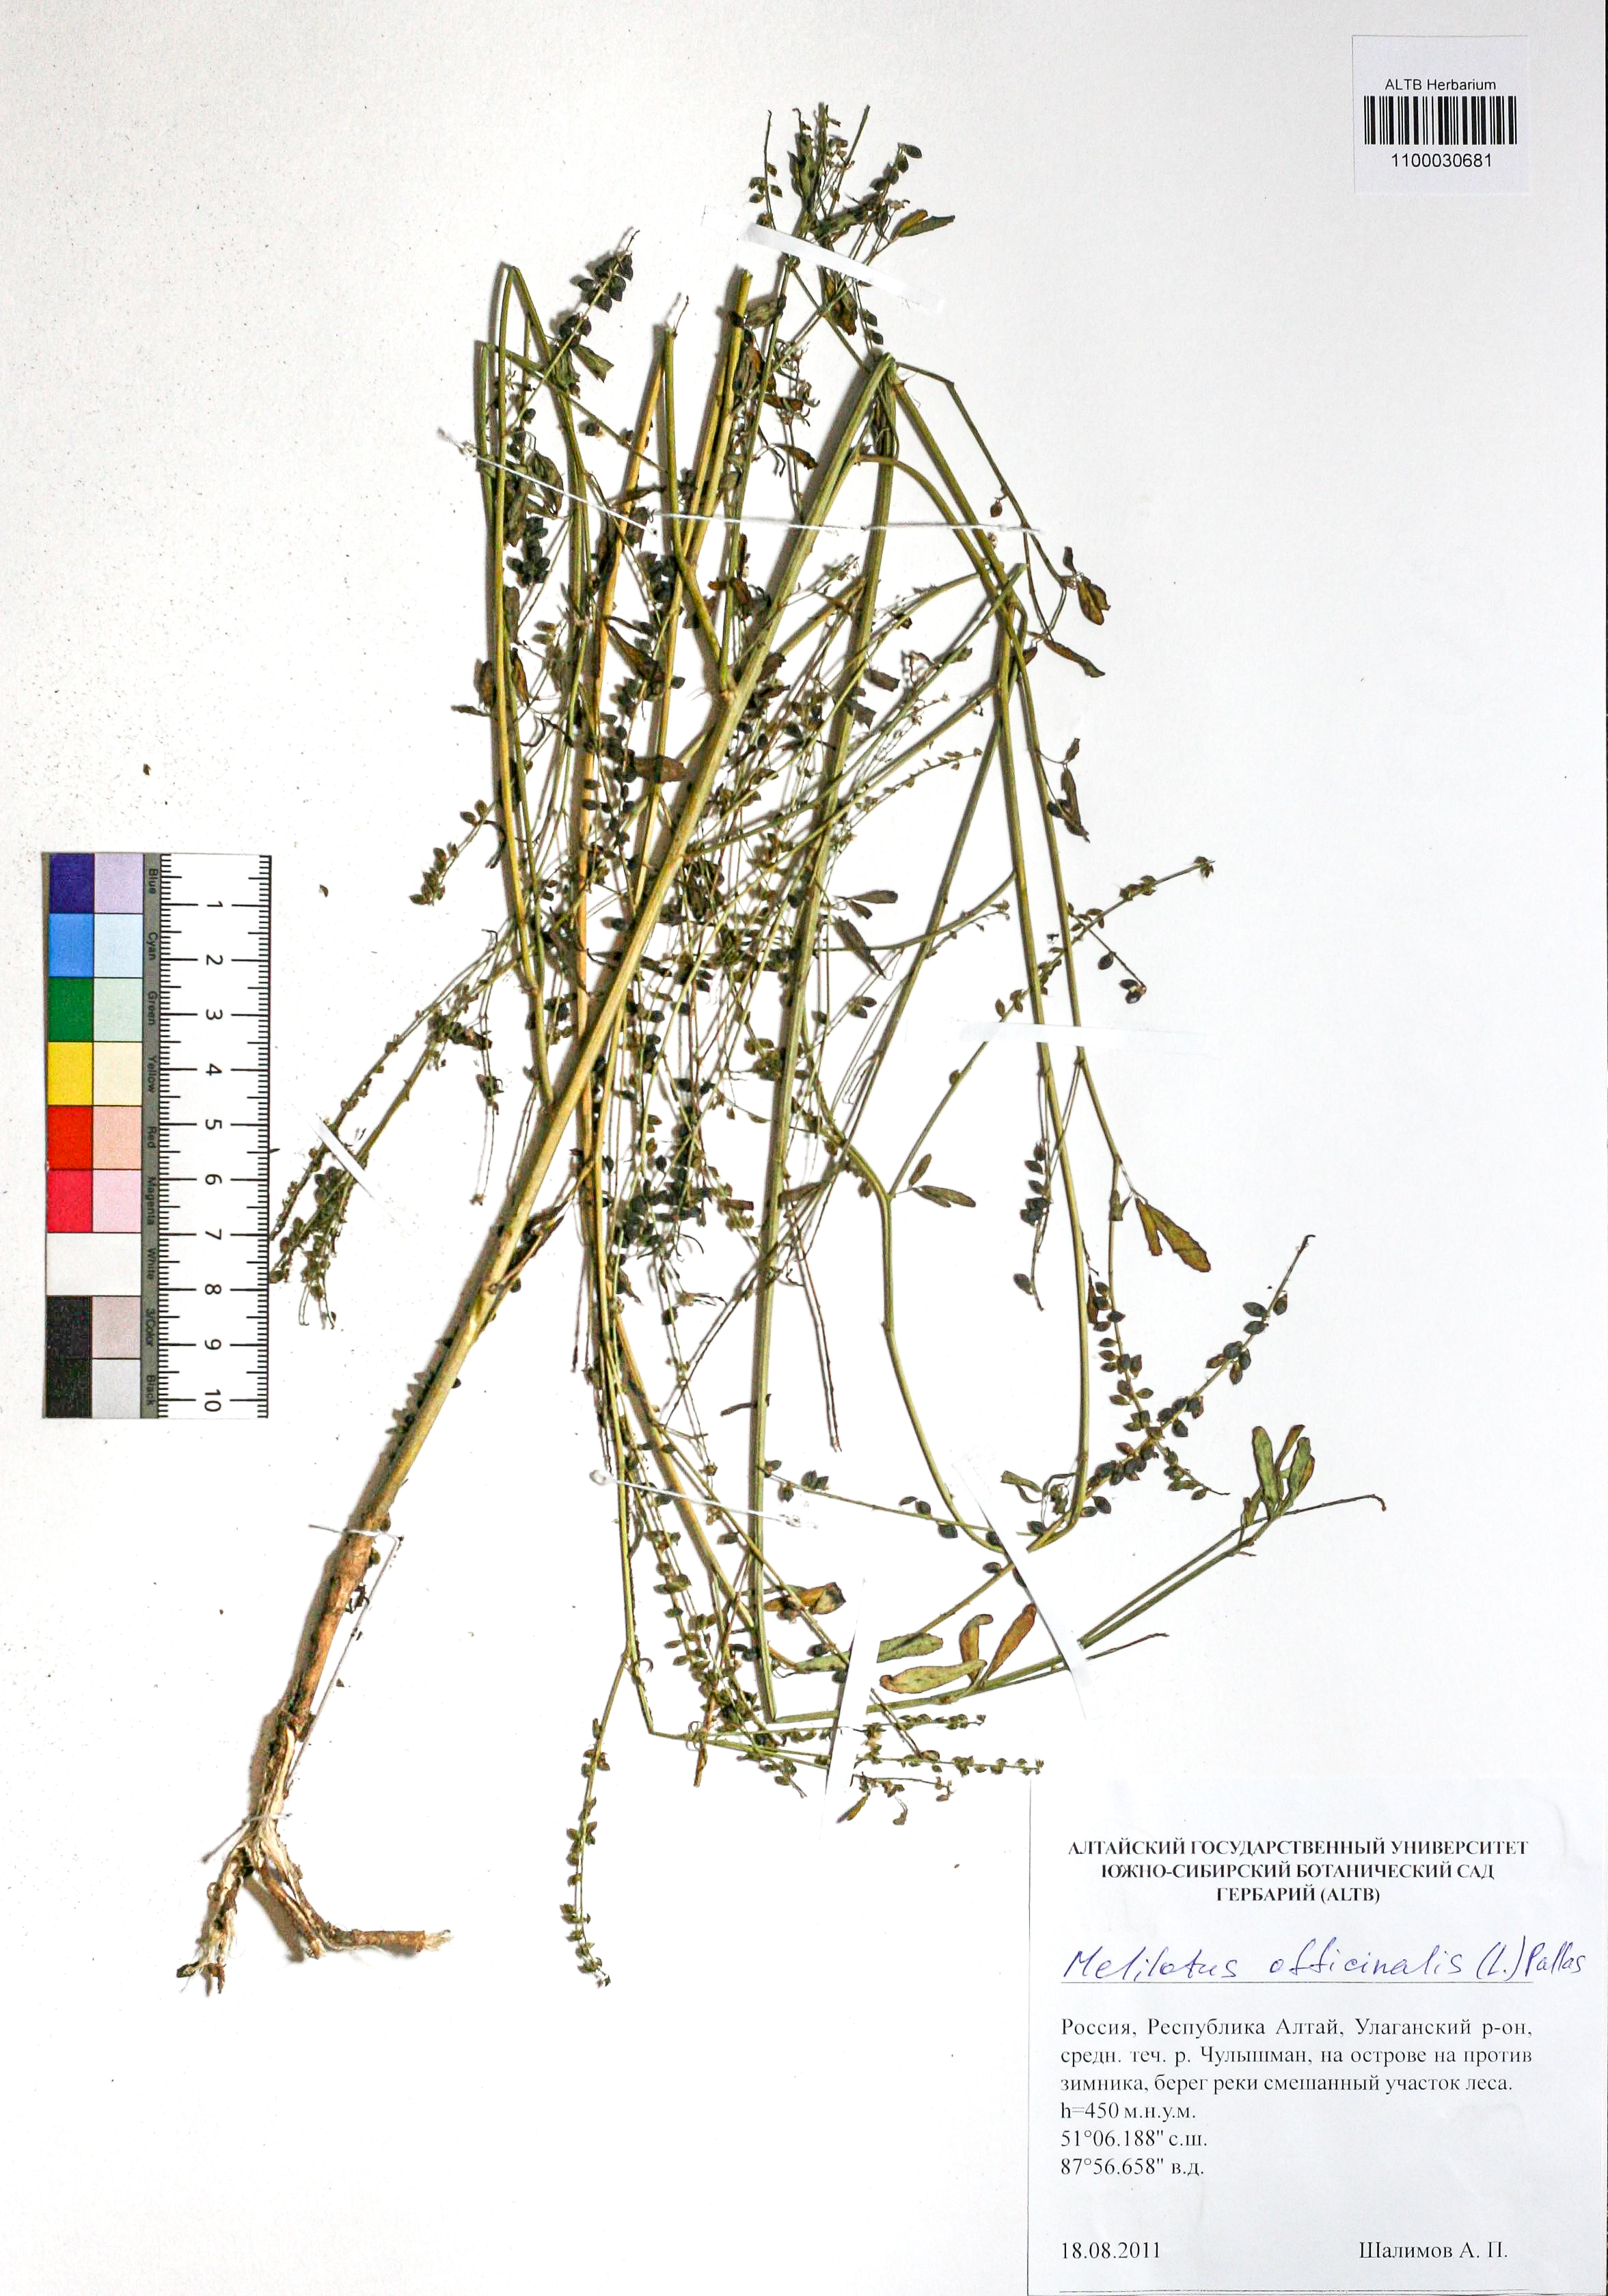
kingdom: Plantae
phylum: Tracheophyta
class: Magnoliopsida
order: Fabales
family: Fabaceae
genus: Melilotus
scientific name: Melilotus officinalis
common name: Sweetclover
